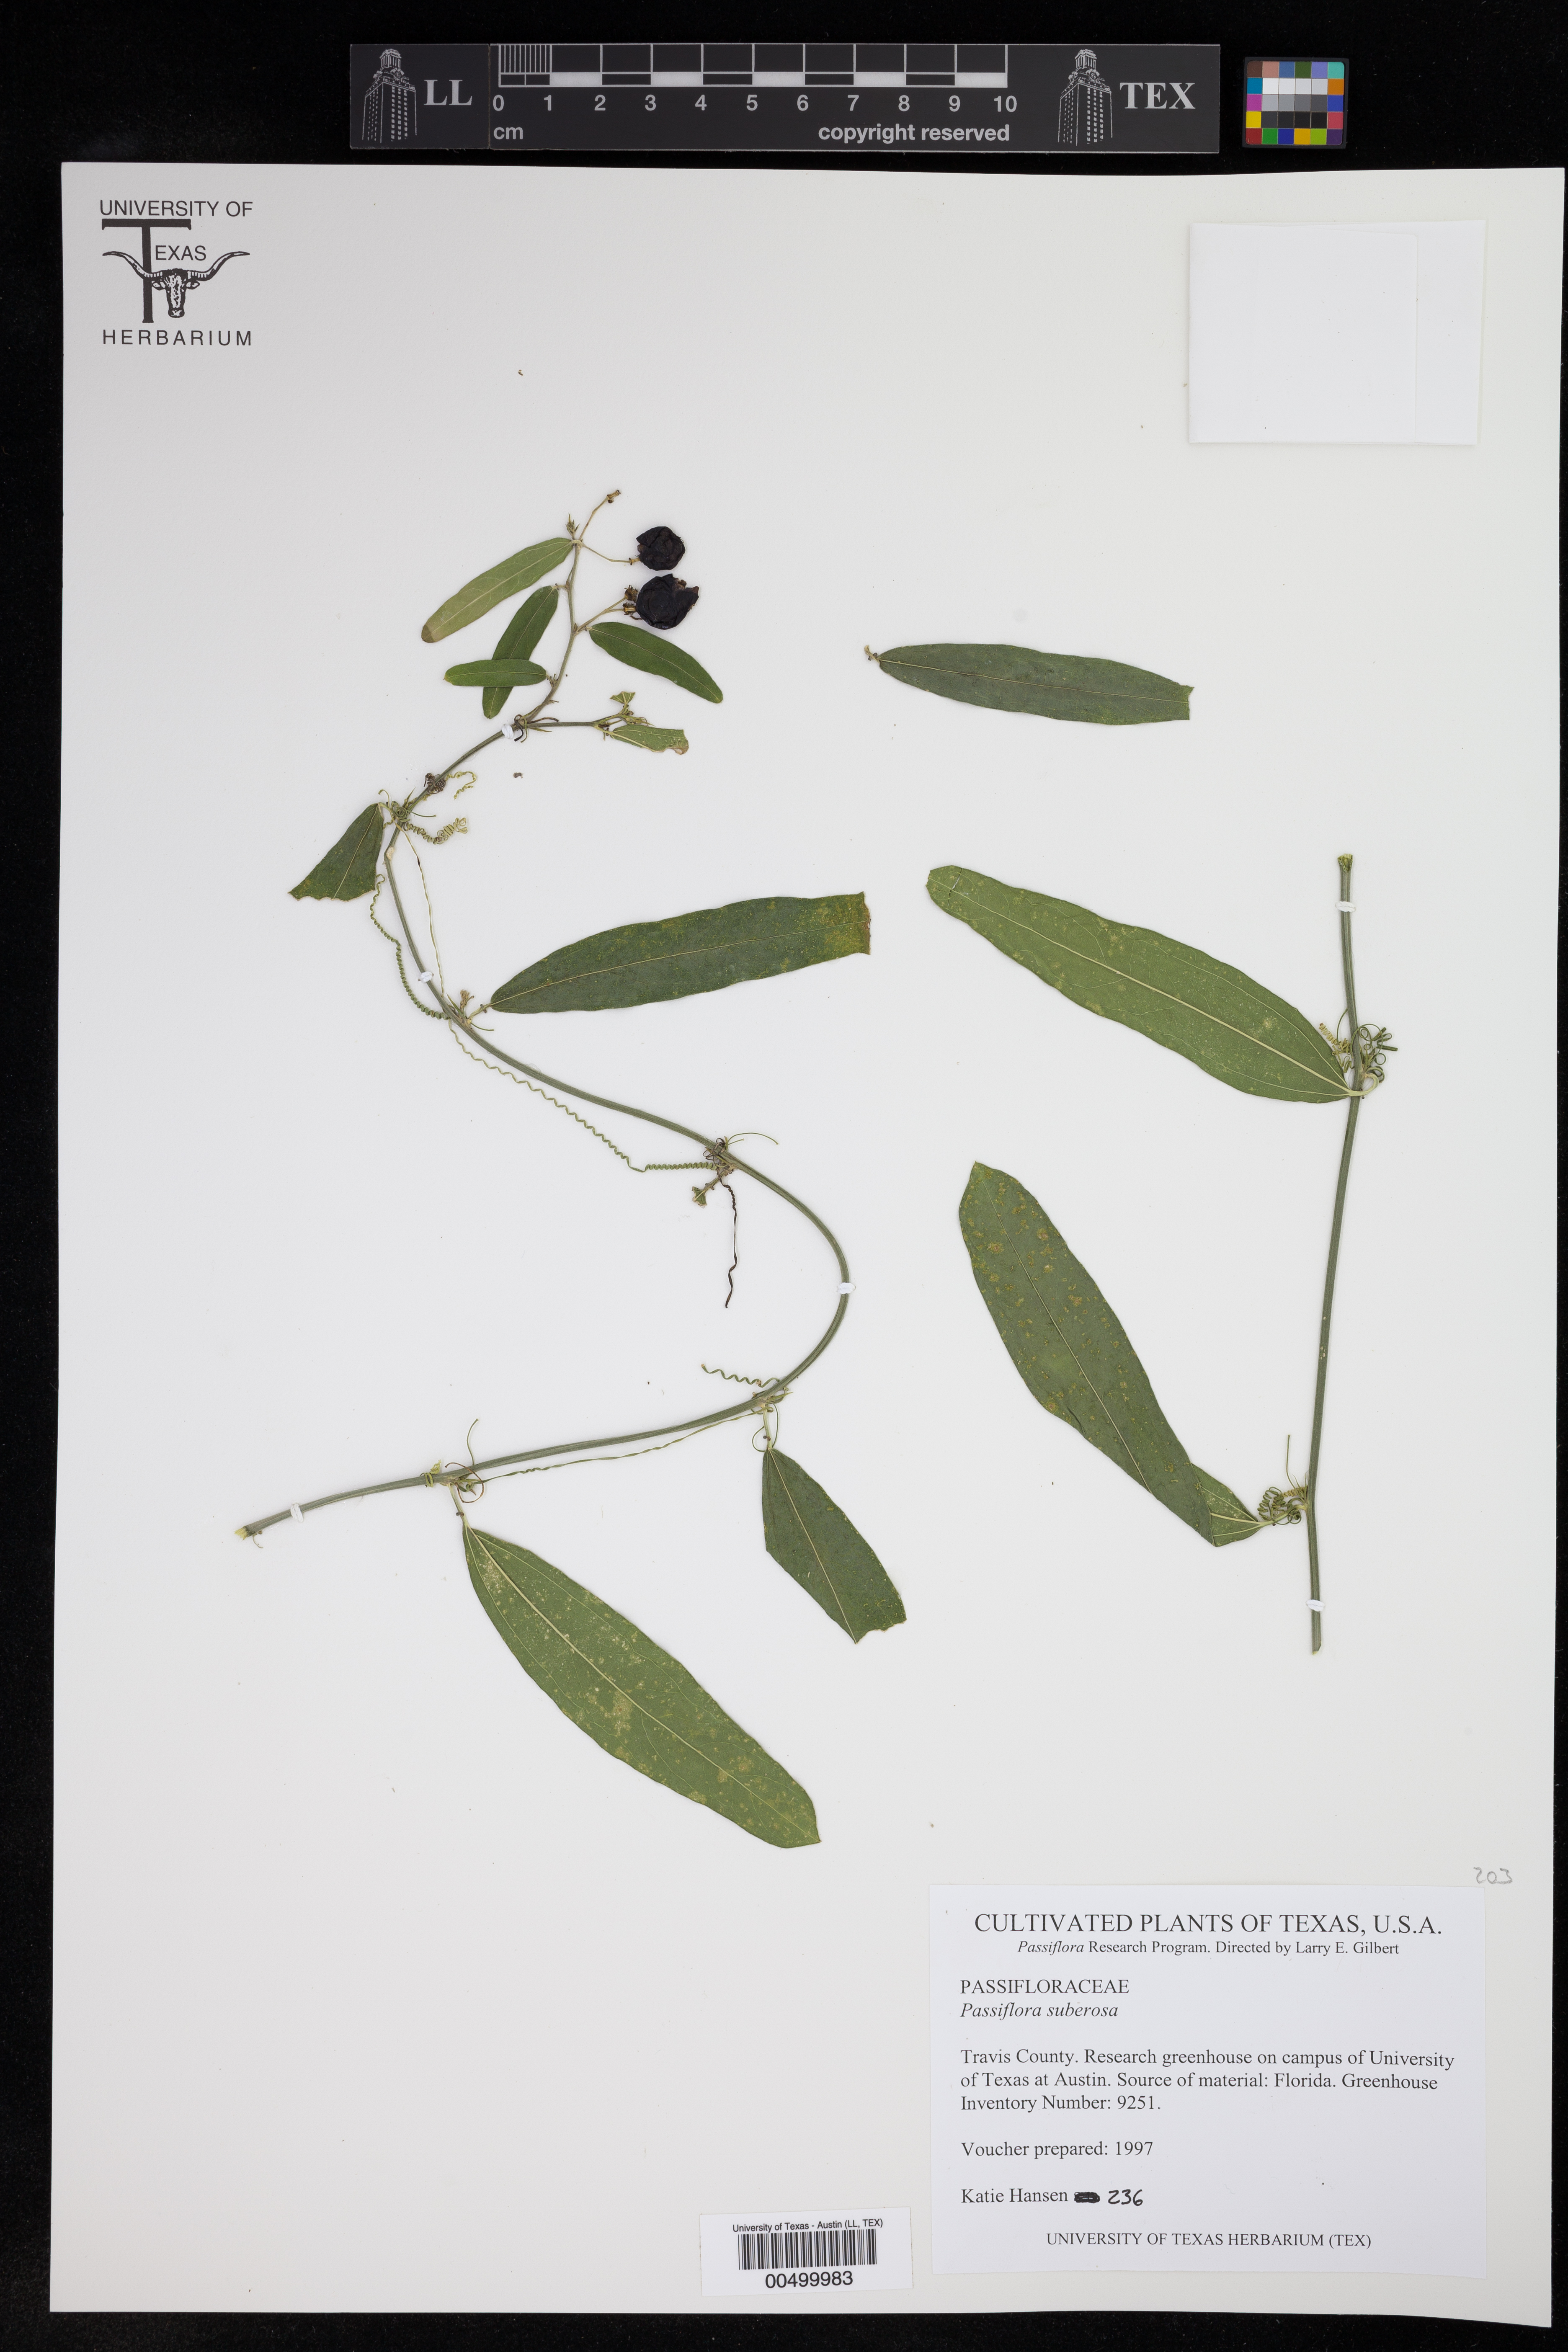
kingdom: Plantae
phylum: Tracheophyta
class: Magnoliopsida
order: Malpighiales
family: Passifloraceae
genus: Passiflora
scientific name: Passiflora suberosa
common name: Wild passionfruit
